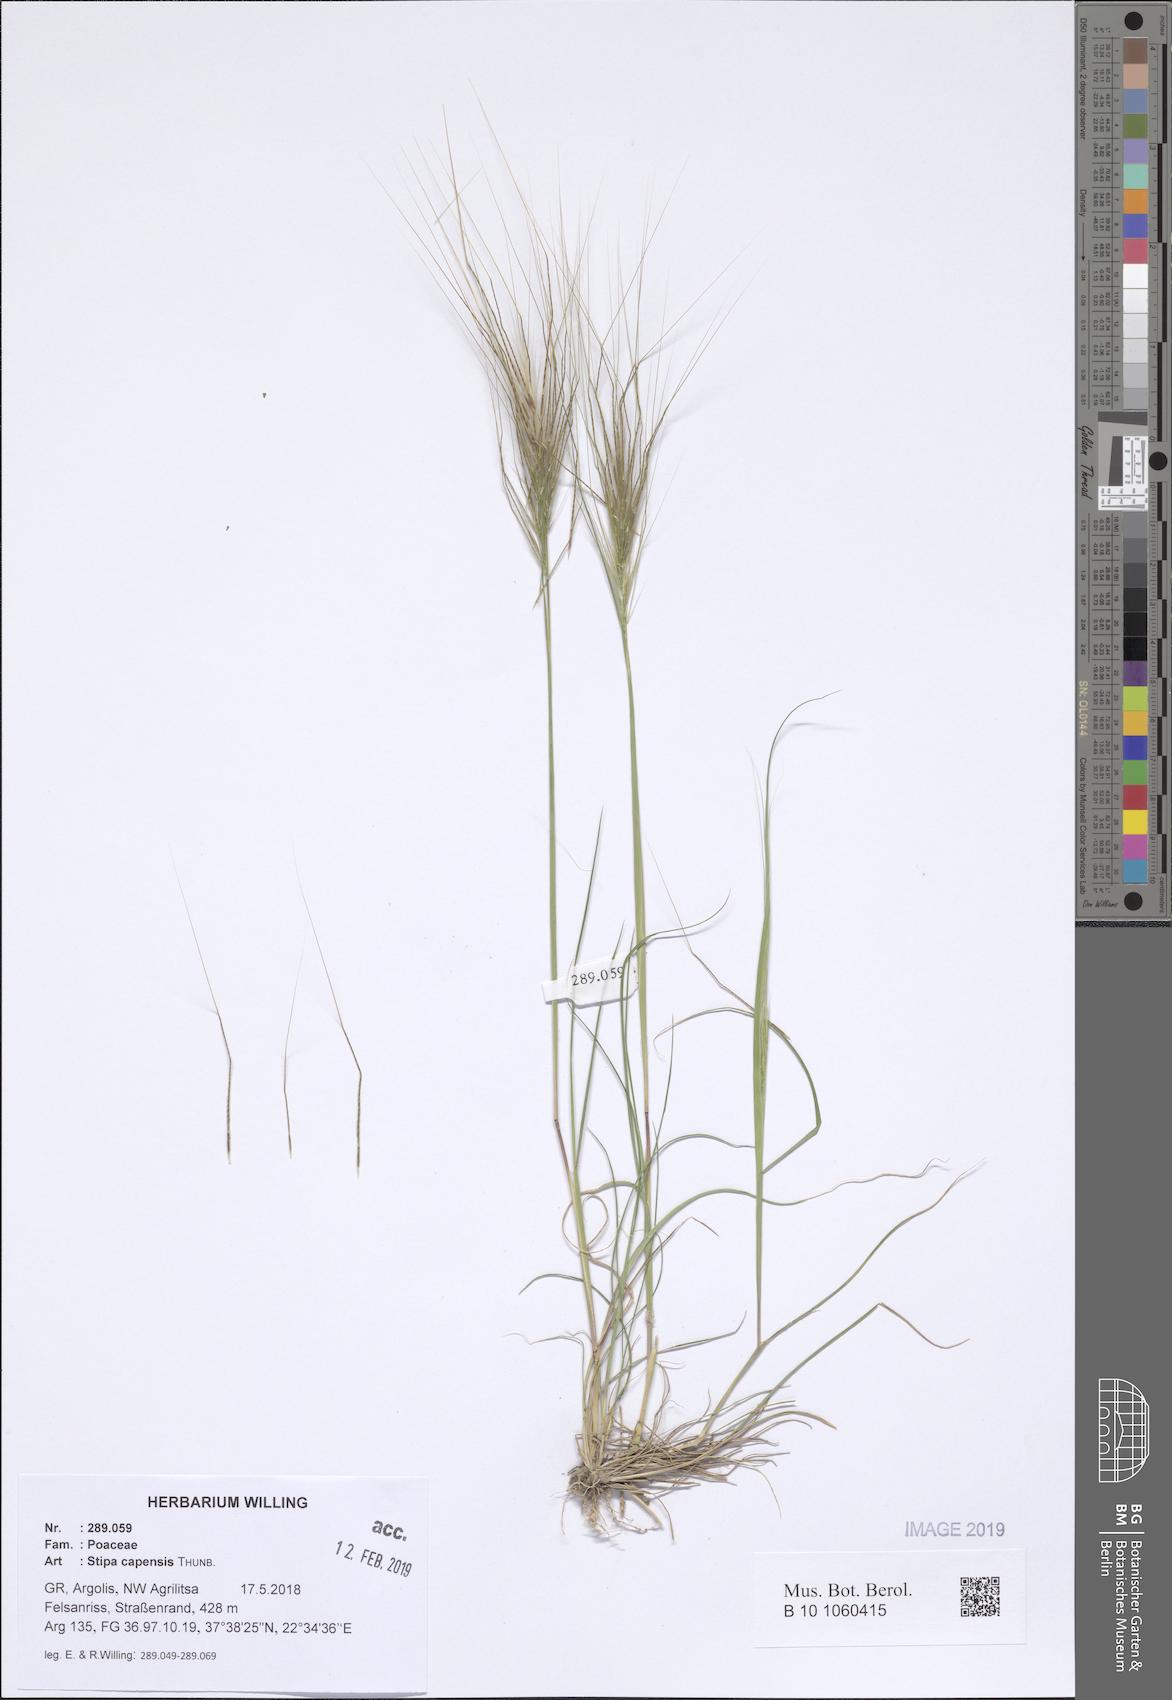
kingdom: Plantae
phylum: Tracheophyta
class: Liliopsida
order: Poales
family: Poaceae
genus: Stipellula
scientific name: Stipellula capensis
